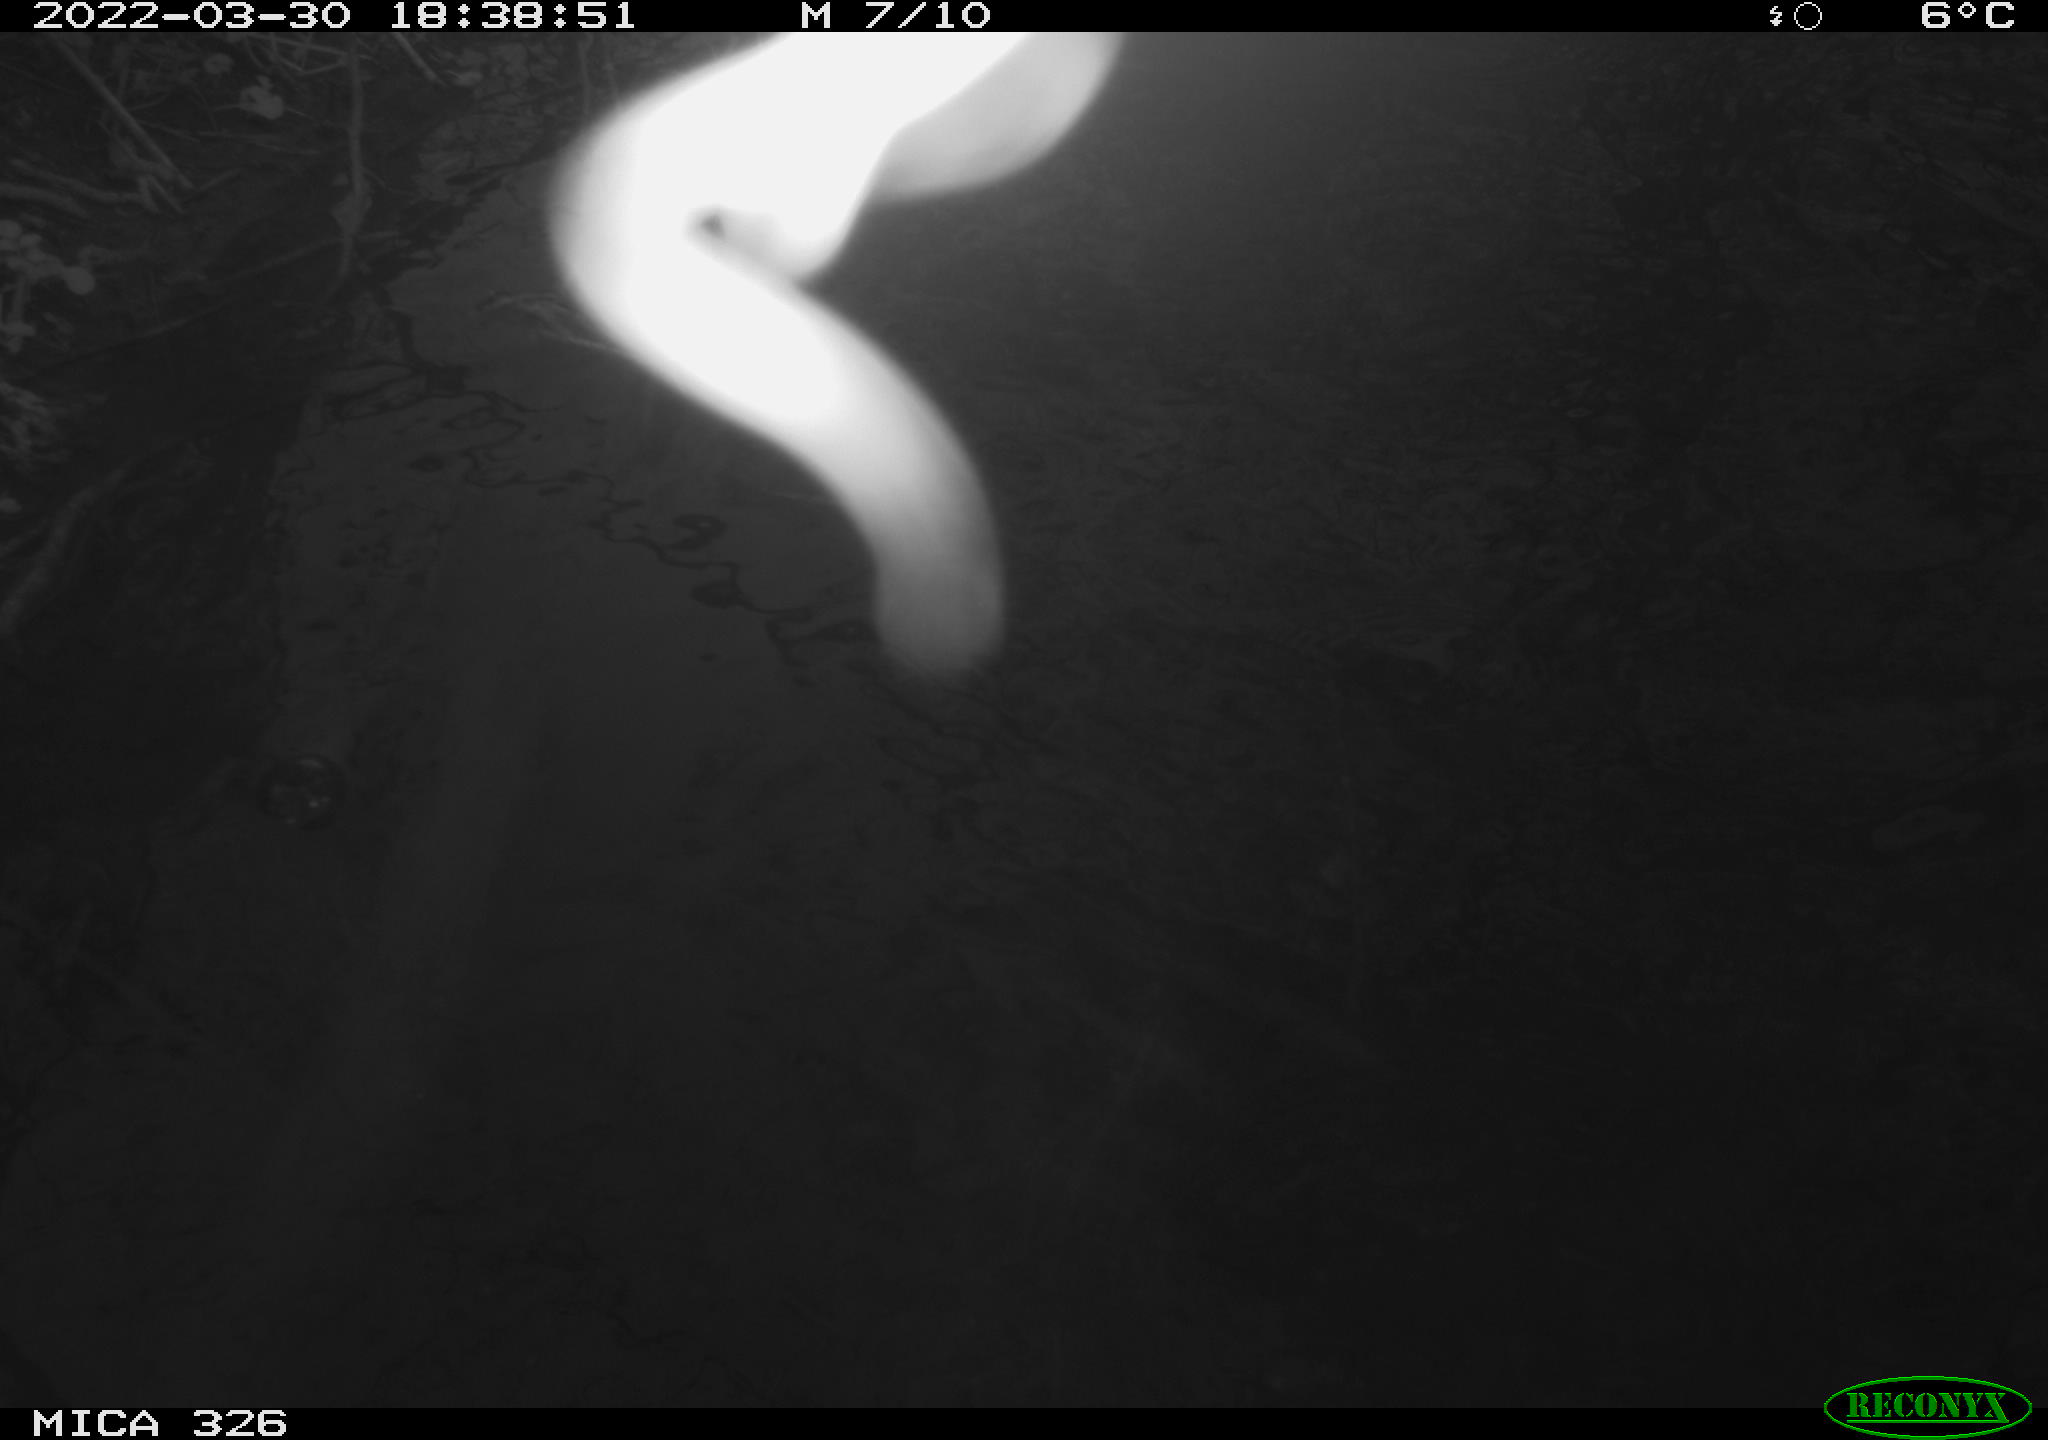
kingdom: Animalia
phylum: Chordata
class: Mammalia
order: Rodentia
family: Cricetidae
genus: Ondatra
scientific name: Ondatra zibethicus
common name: Muskrat
